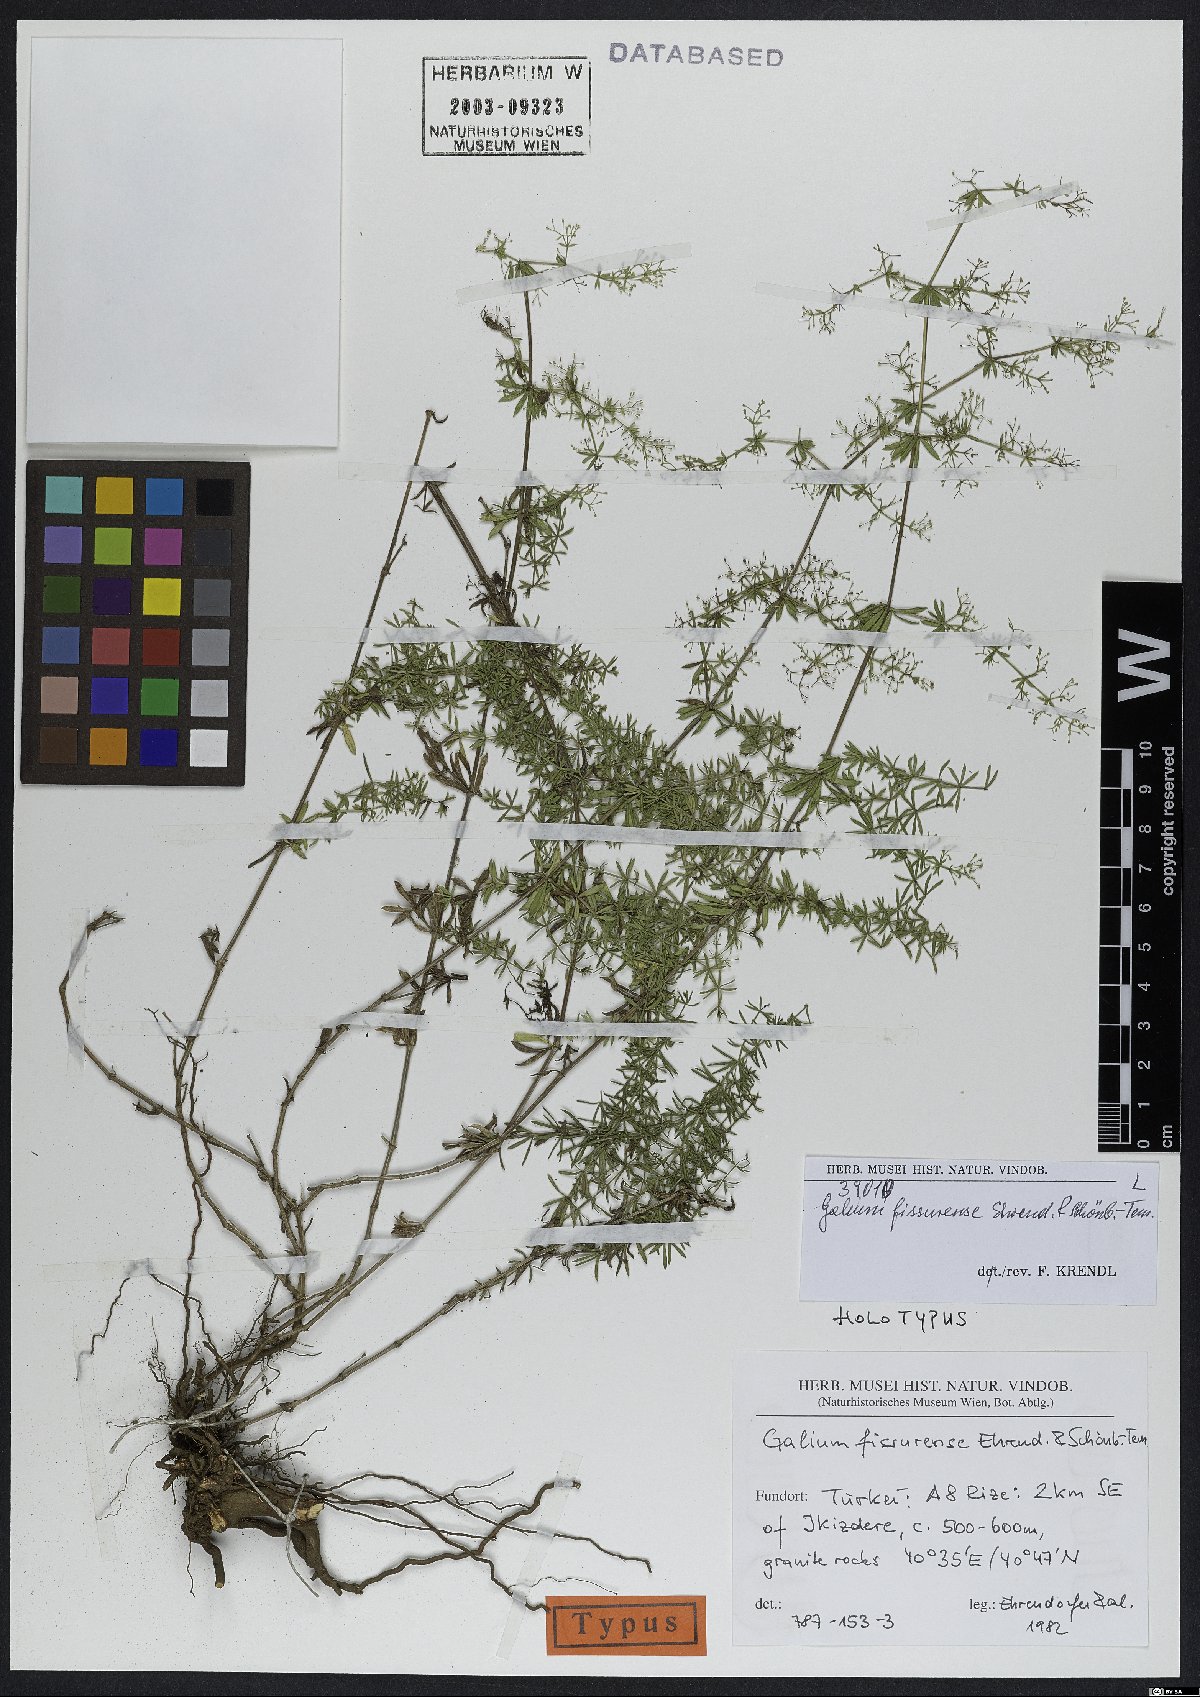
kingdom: Plantae
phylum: Tracheophyta
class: Magnoliopsida
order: Gentianales
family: Rubiaceae
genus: Galium
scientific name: Galium fissurense
